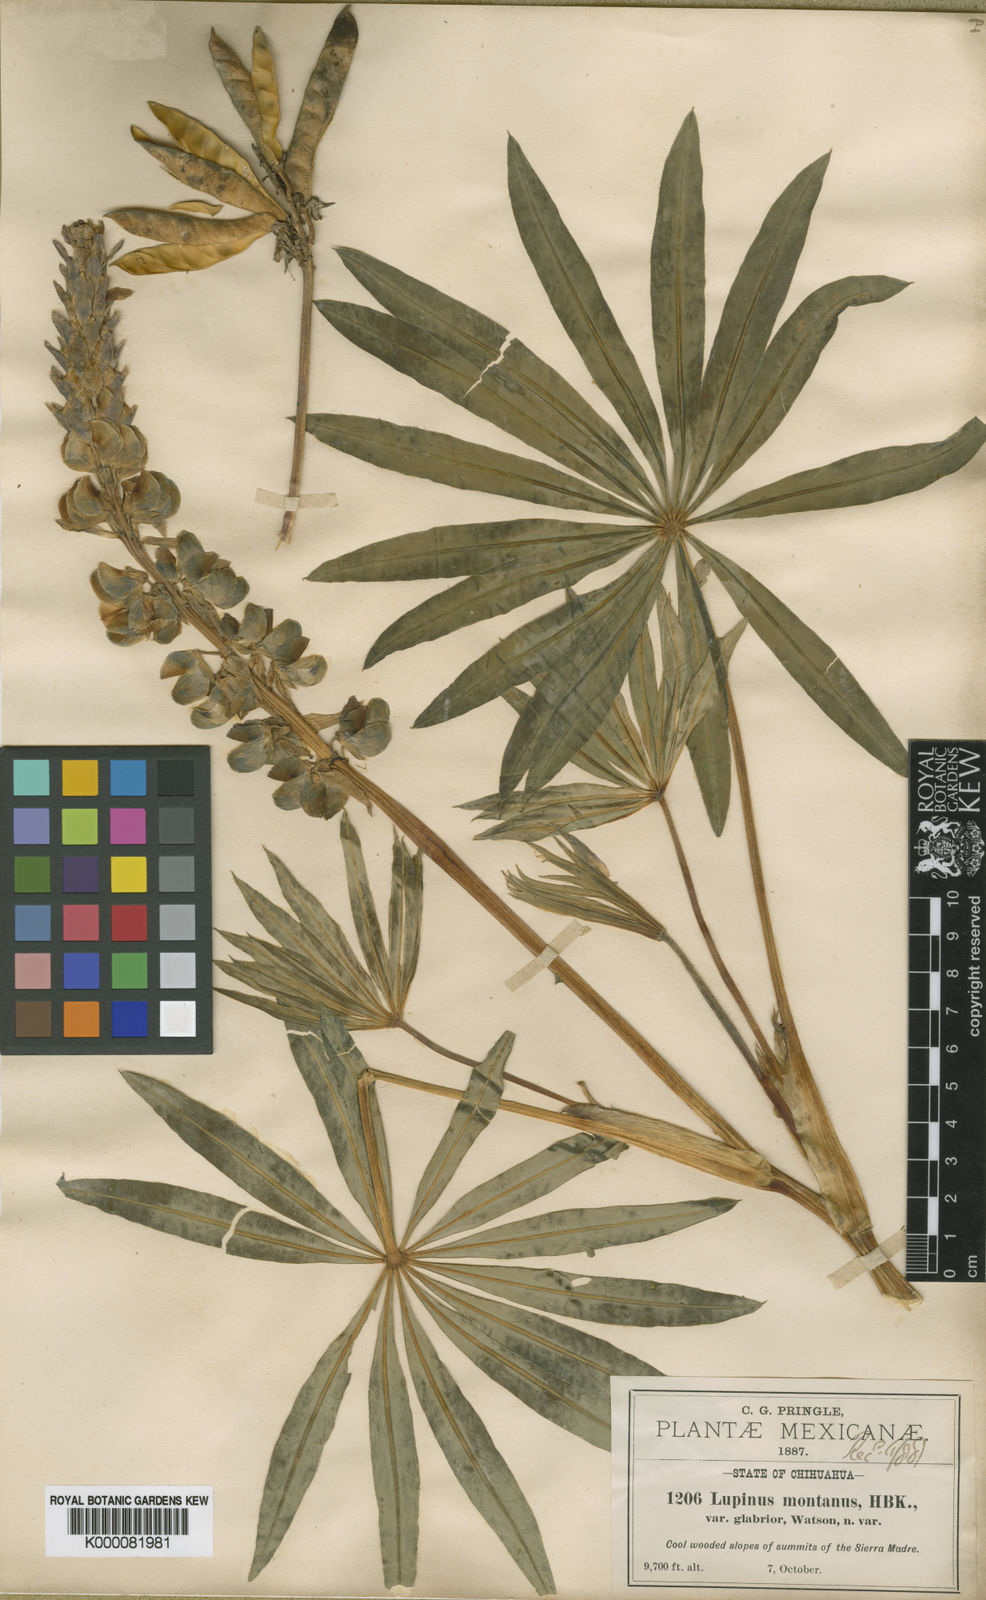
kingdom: Plantae
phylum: Tracheophyta
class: Magnoliopsida
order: Fabales
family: Fabaceae
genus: Lupinus
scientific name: Lupinus montanus
